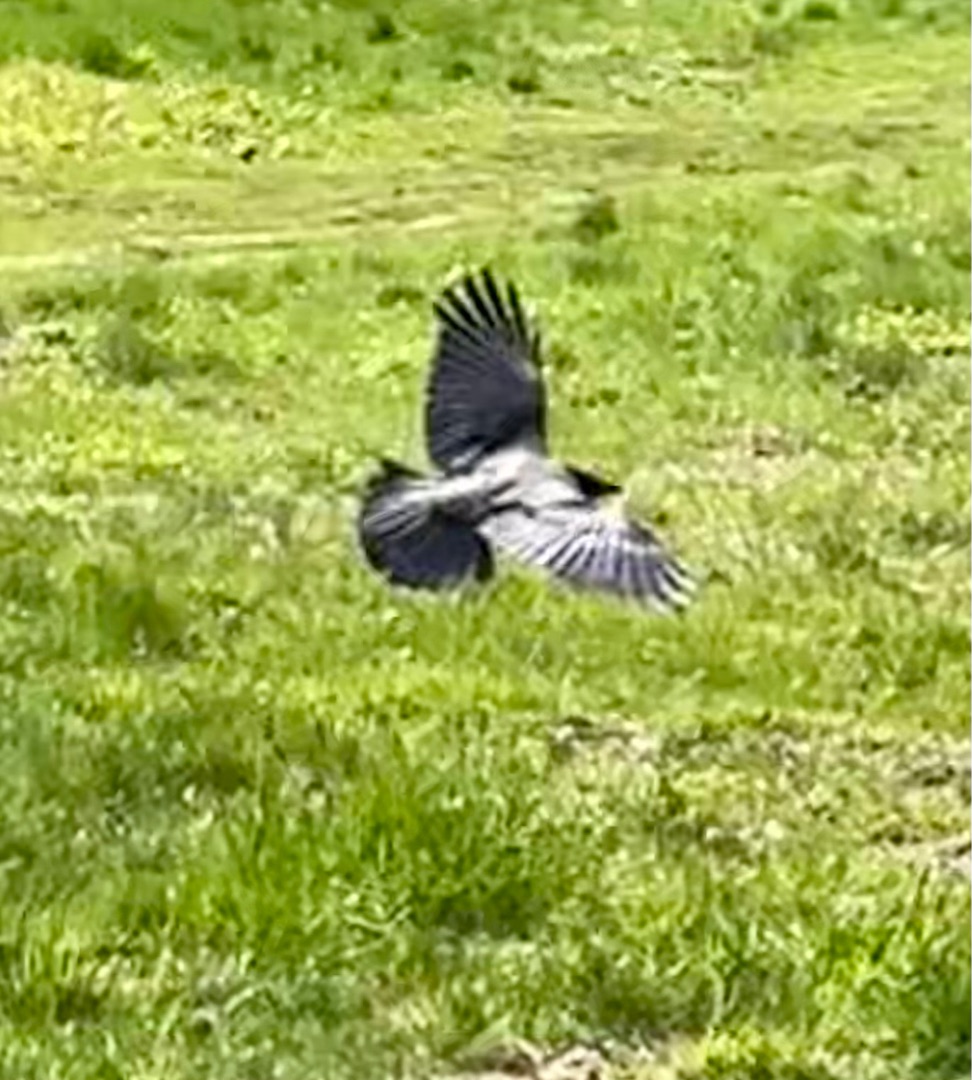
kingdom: Animalia
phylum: Chordata
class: Aves
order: Passeriformes
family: Corvidae
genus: Corvus
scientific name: Corvus cornix
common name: Gråkrage
